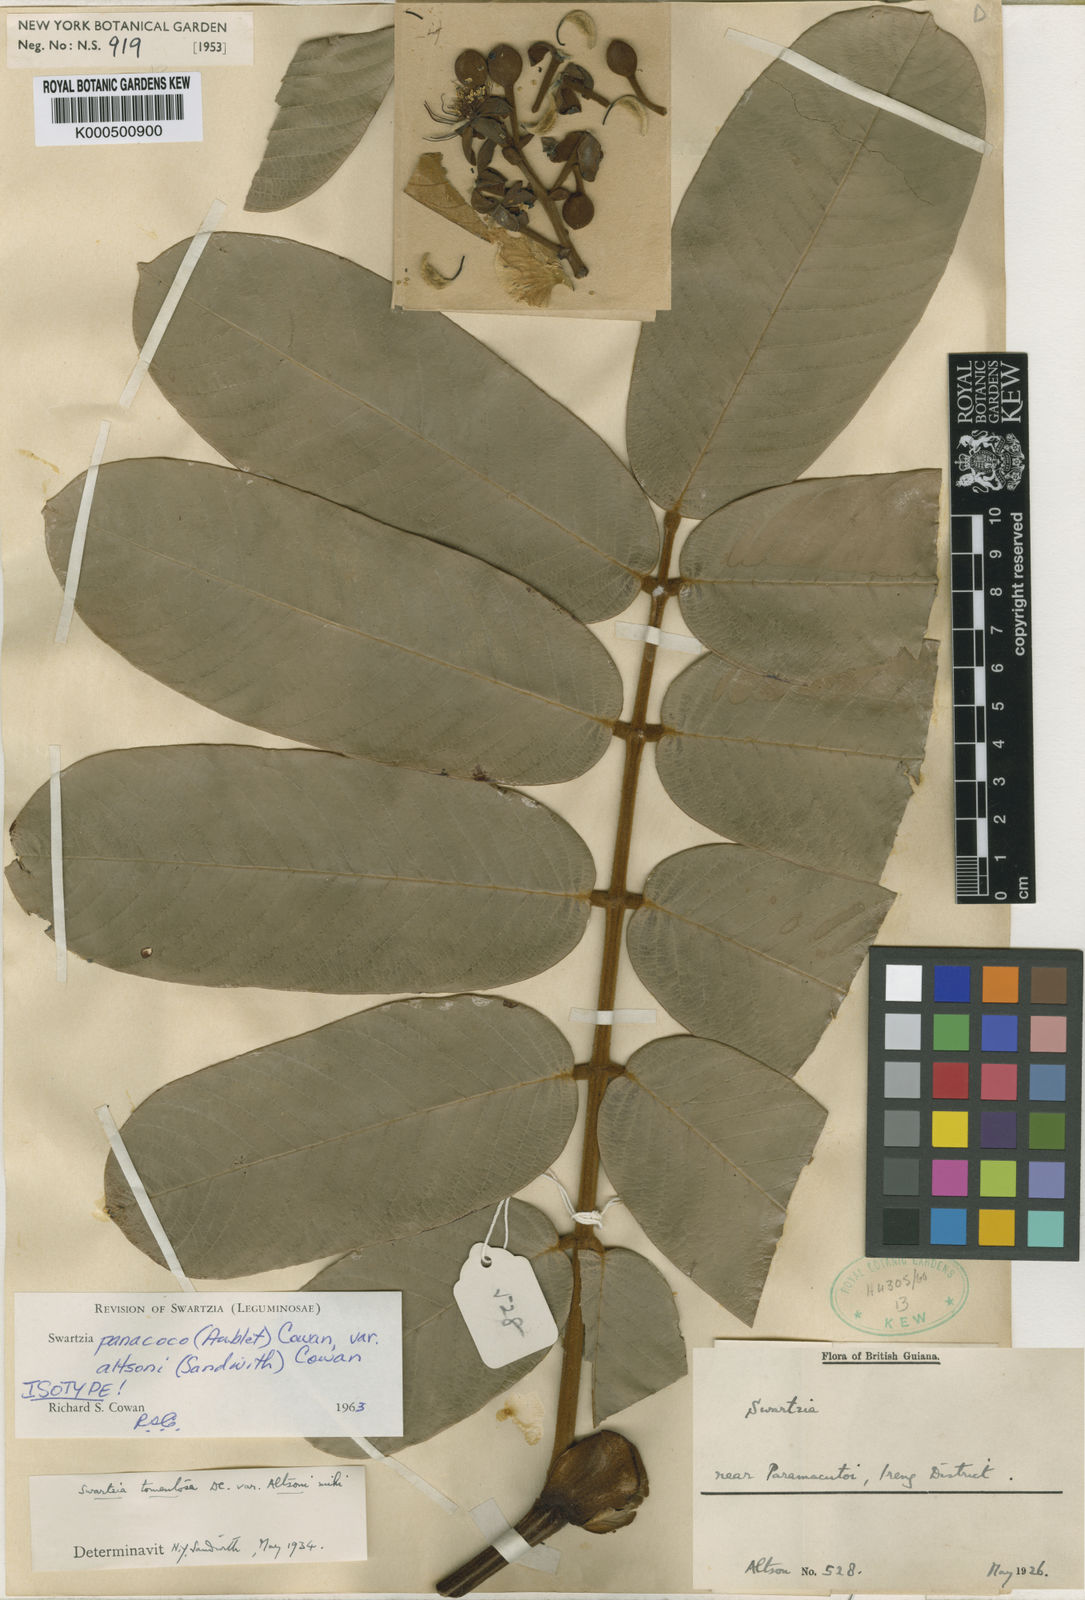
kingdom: Plantae
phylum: Tracheophyta
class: Magnoliopsida
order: Fabales
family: Fabaceae
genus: Swartzia
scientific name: Swartzia panacoco
